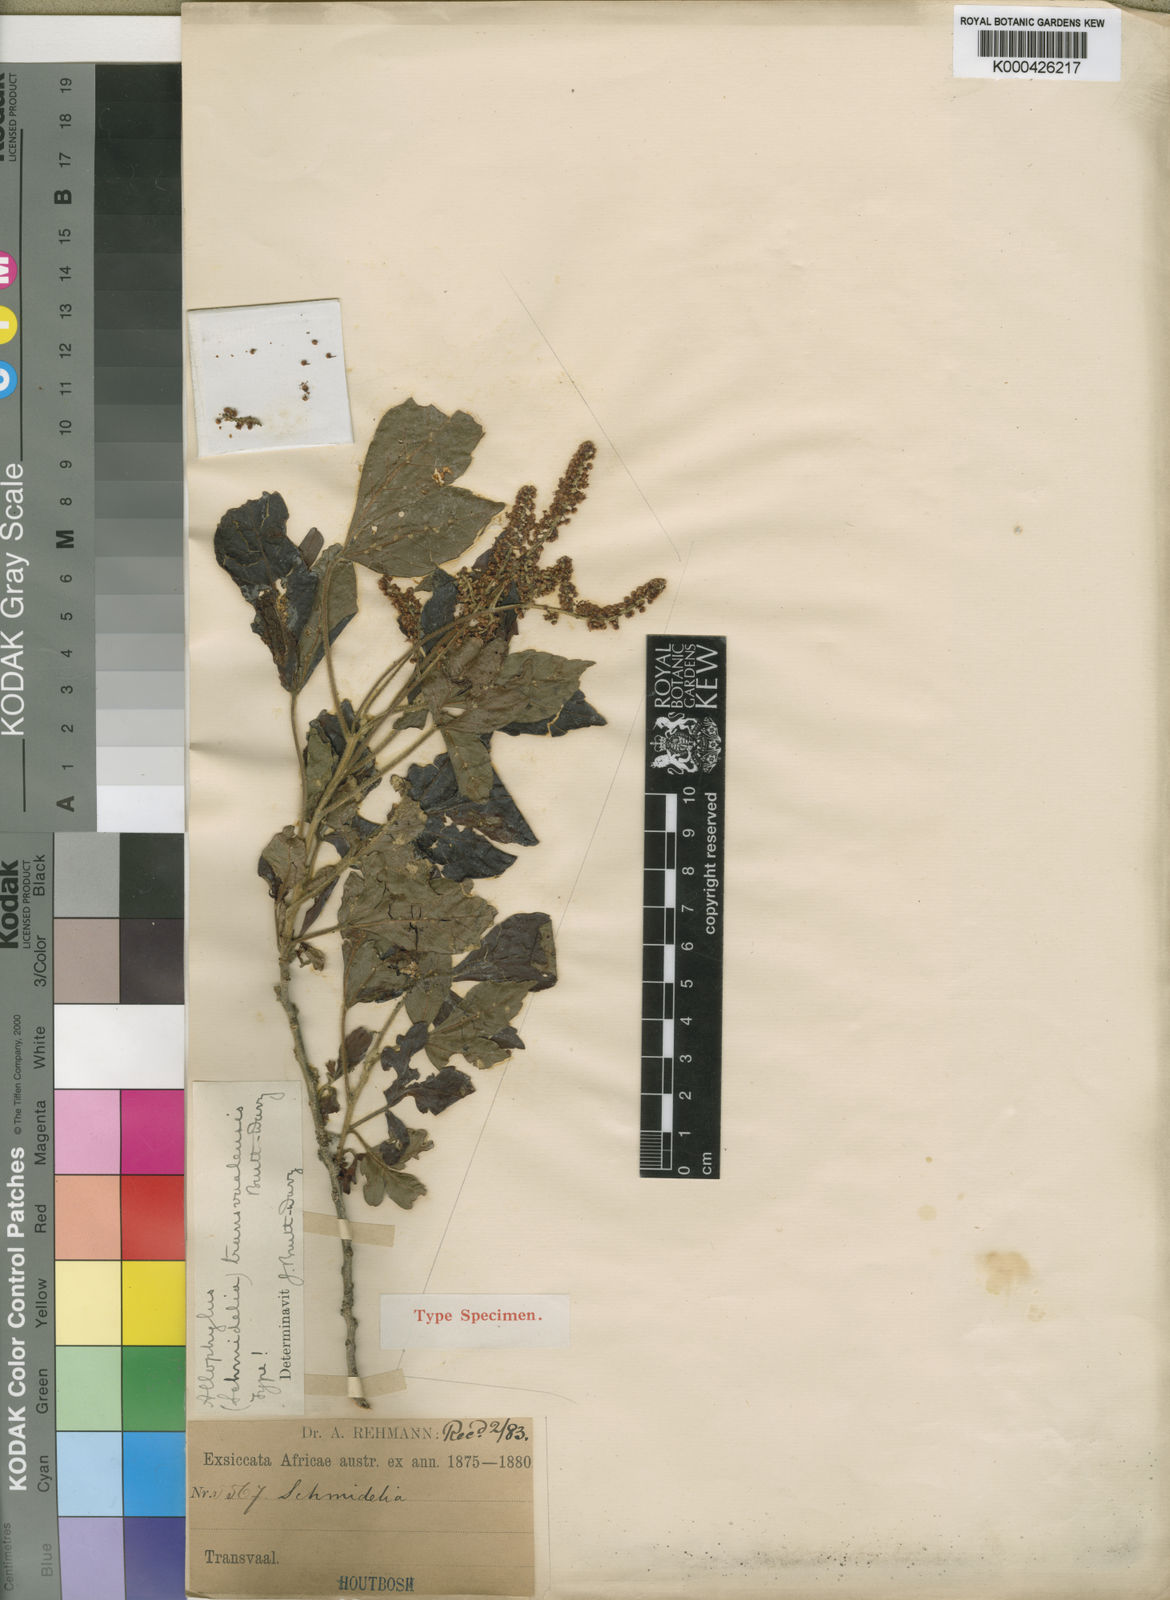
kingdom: Plantae
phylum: Tracheophyta
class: Magnoliopsida
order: Sapindales
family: Sapindaceae
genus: Allophylus
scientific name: Allophylus africanus
